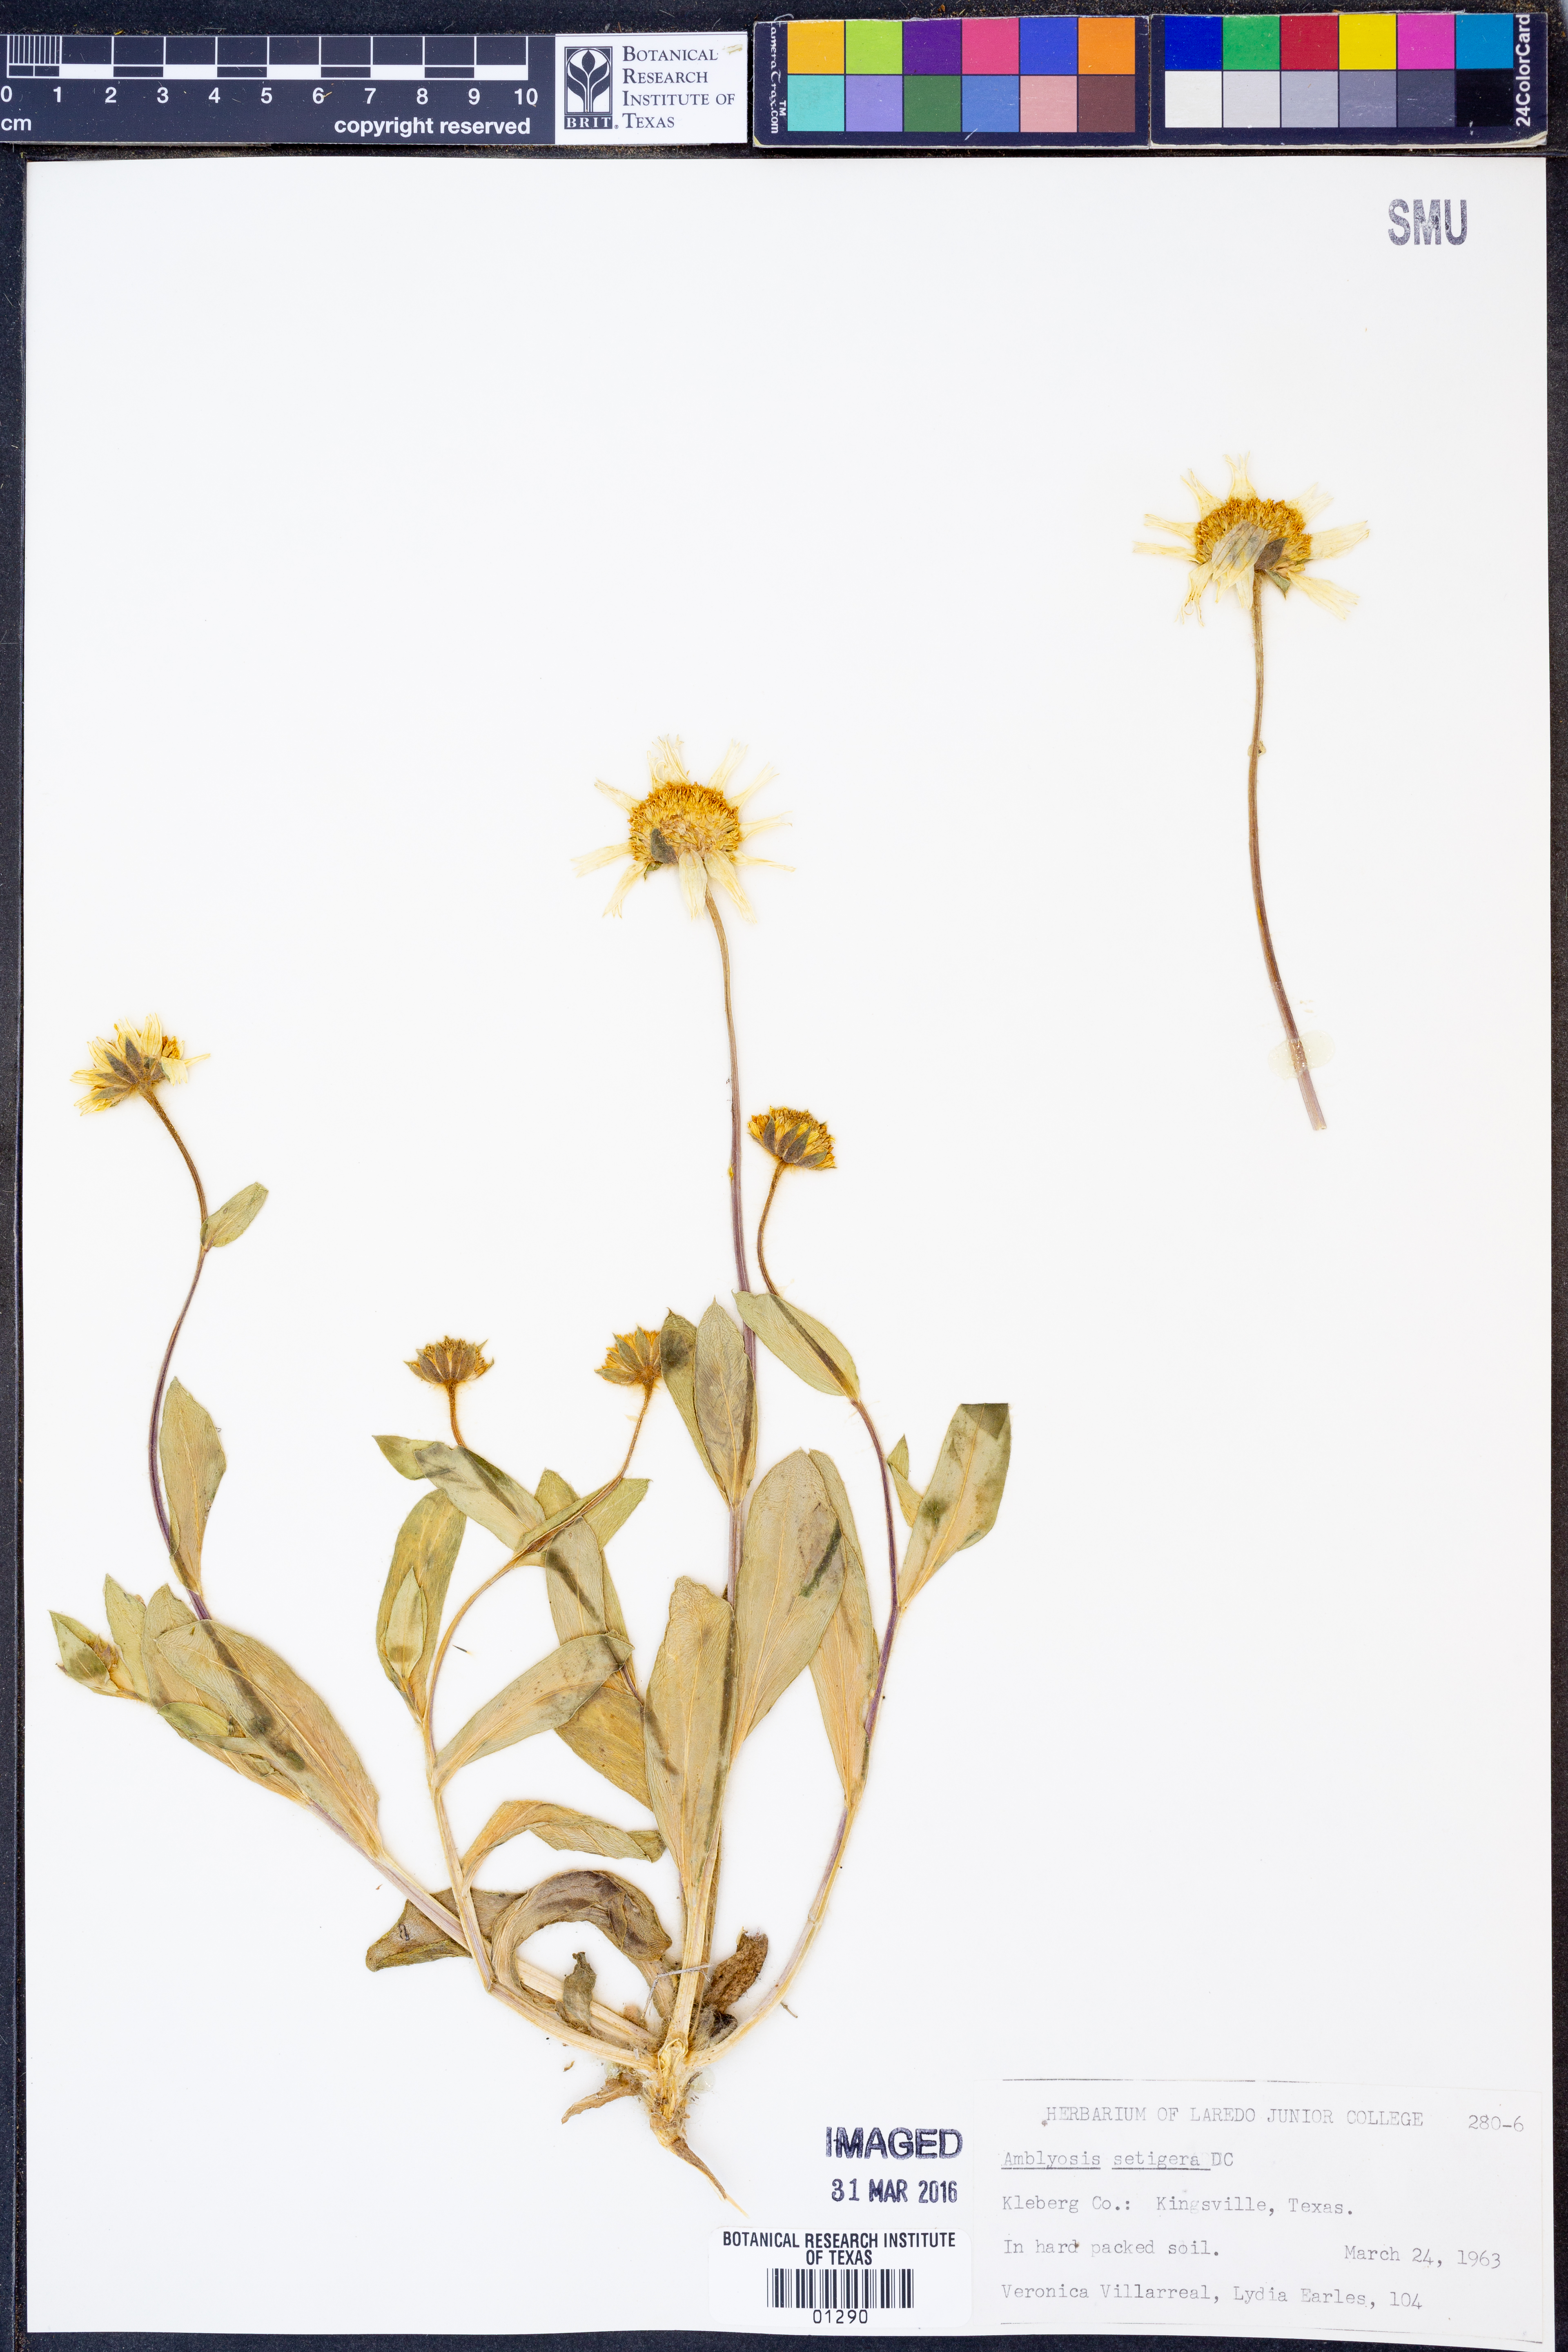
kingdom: Plantae
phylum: Tracheophyta
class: Magnoliopsida
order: Asterales
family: Asteraceae
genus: Amblyolepis
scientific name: Amblyolepis setigera
